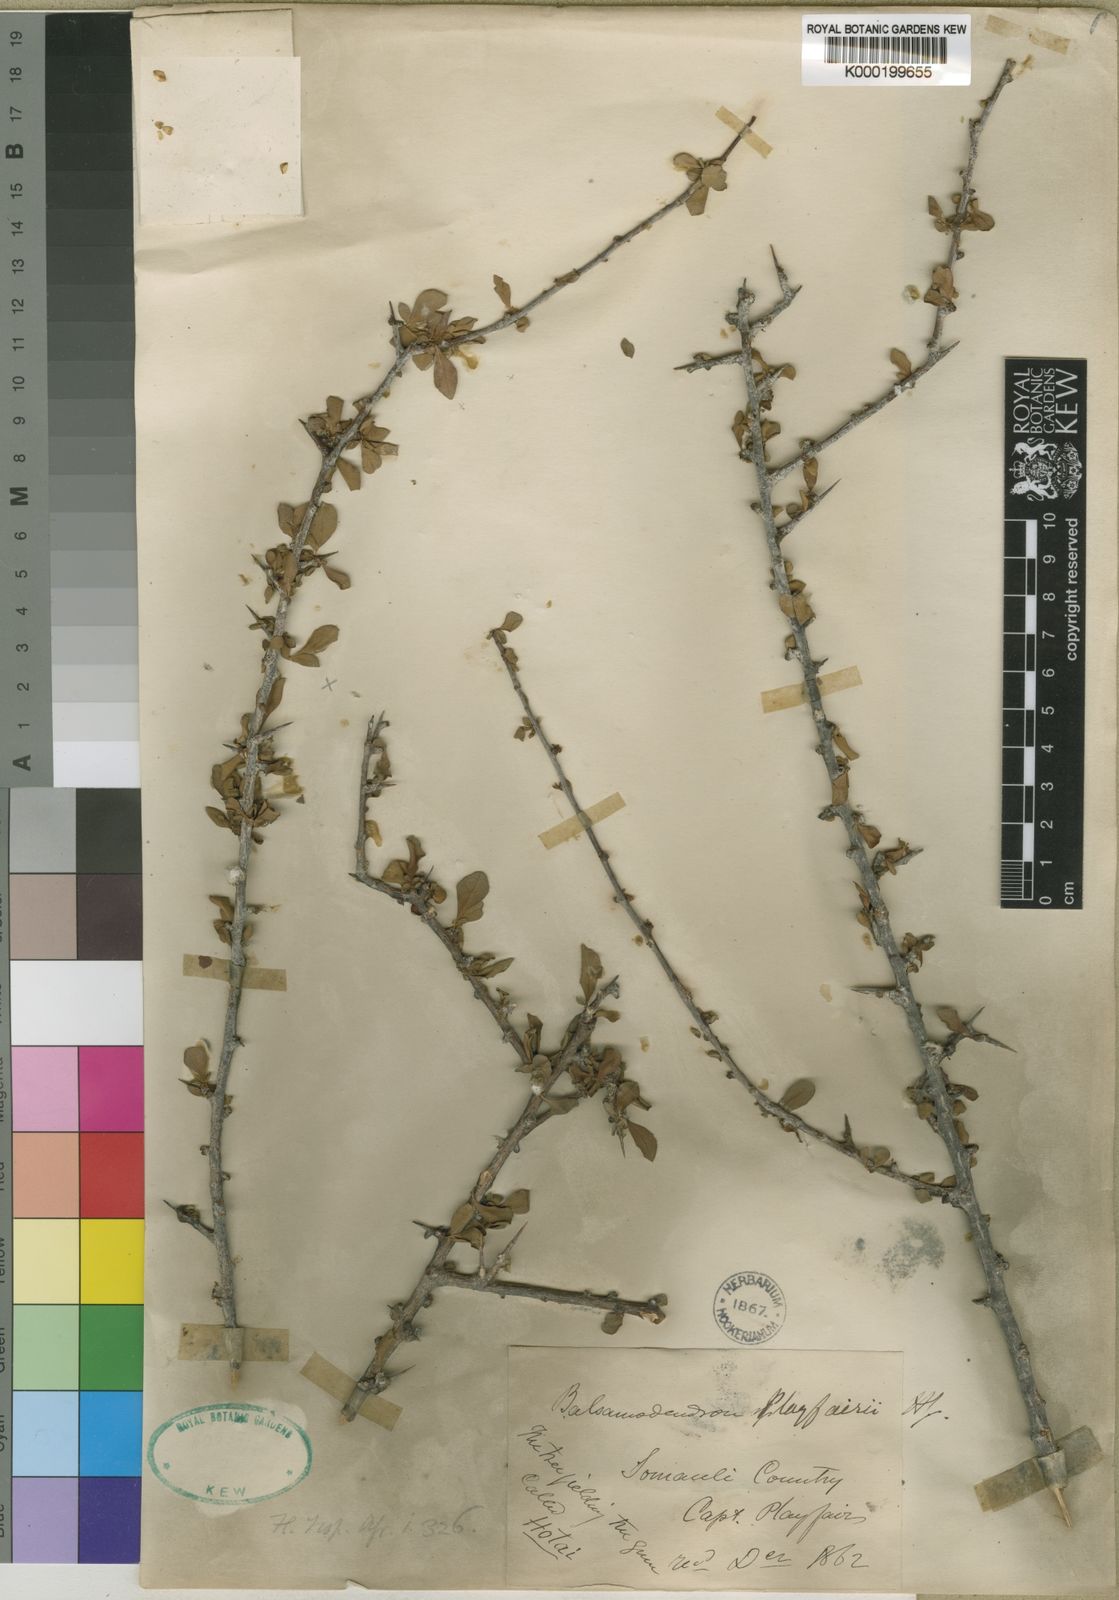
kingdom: Plantae
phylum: Tracheophyta
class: Magnoliopsida
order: Sapindales
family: Burseraceae
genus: Commiphora
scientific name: Commiphora playfairii
